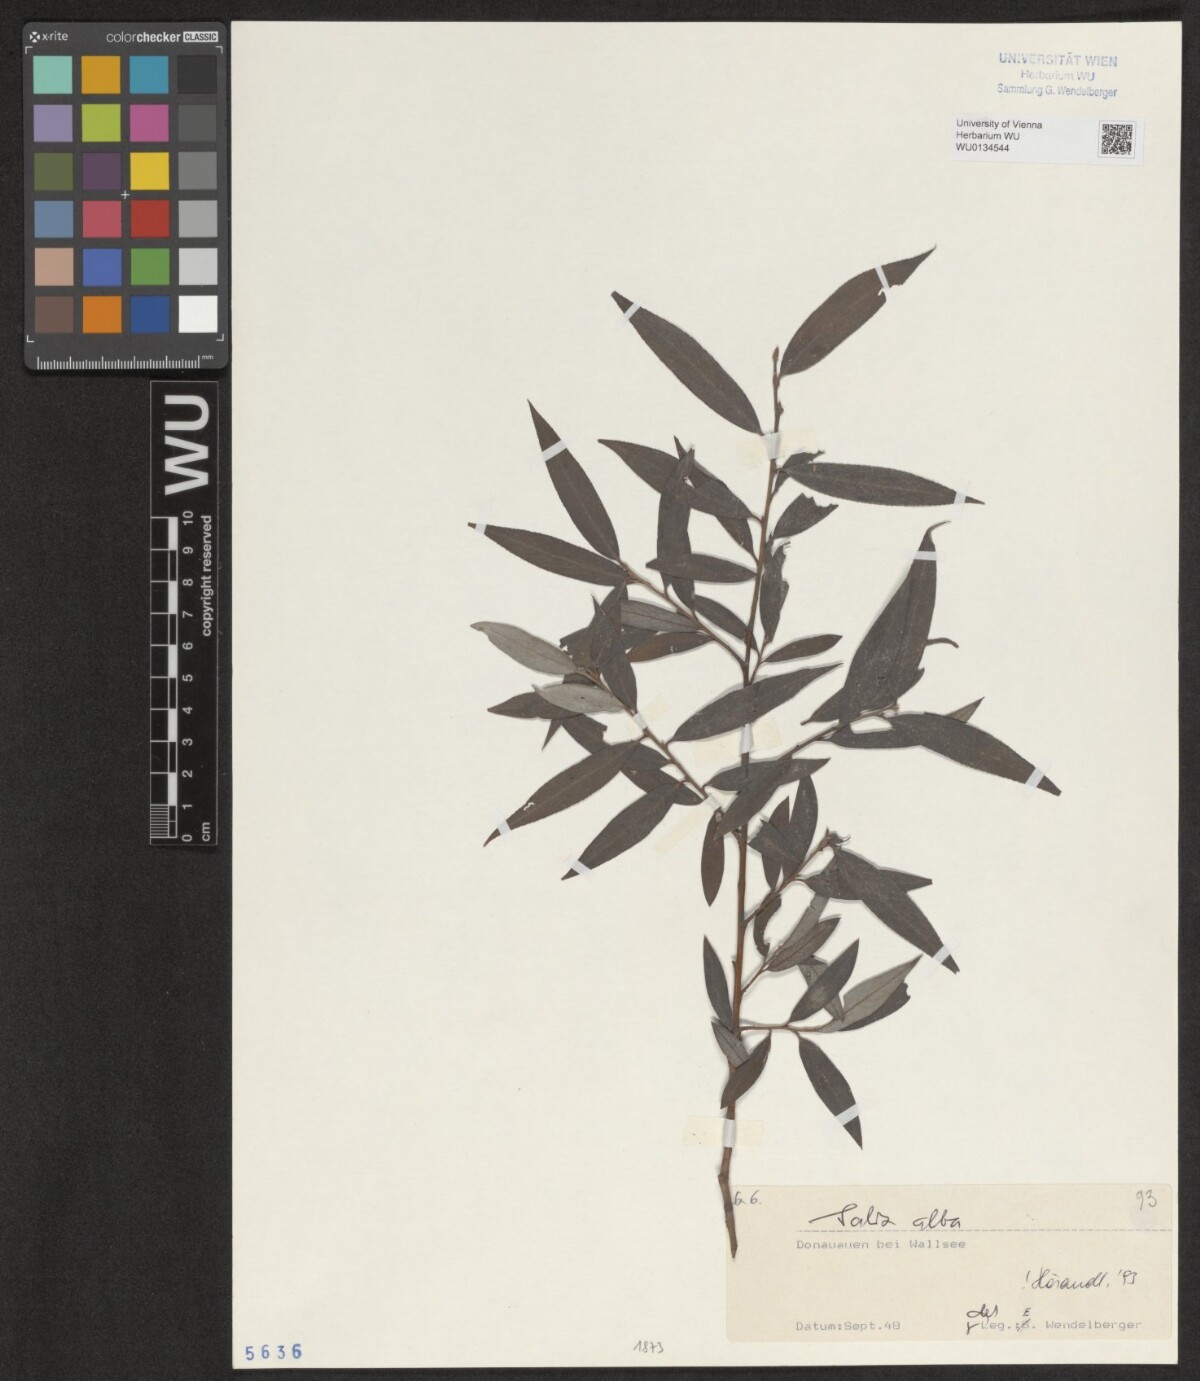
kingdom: Plantae
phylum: Tracheophyta
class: Magnoliopsida
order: Malpighiales
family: Salicaceae
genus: Salix
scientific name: Salix alba
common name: White willow
